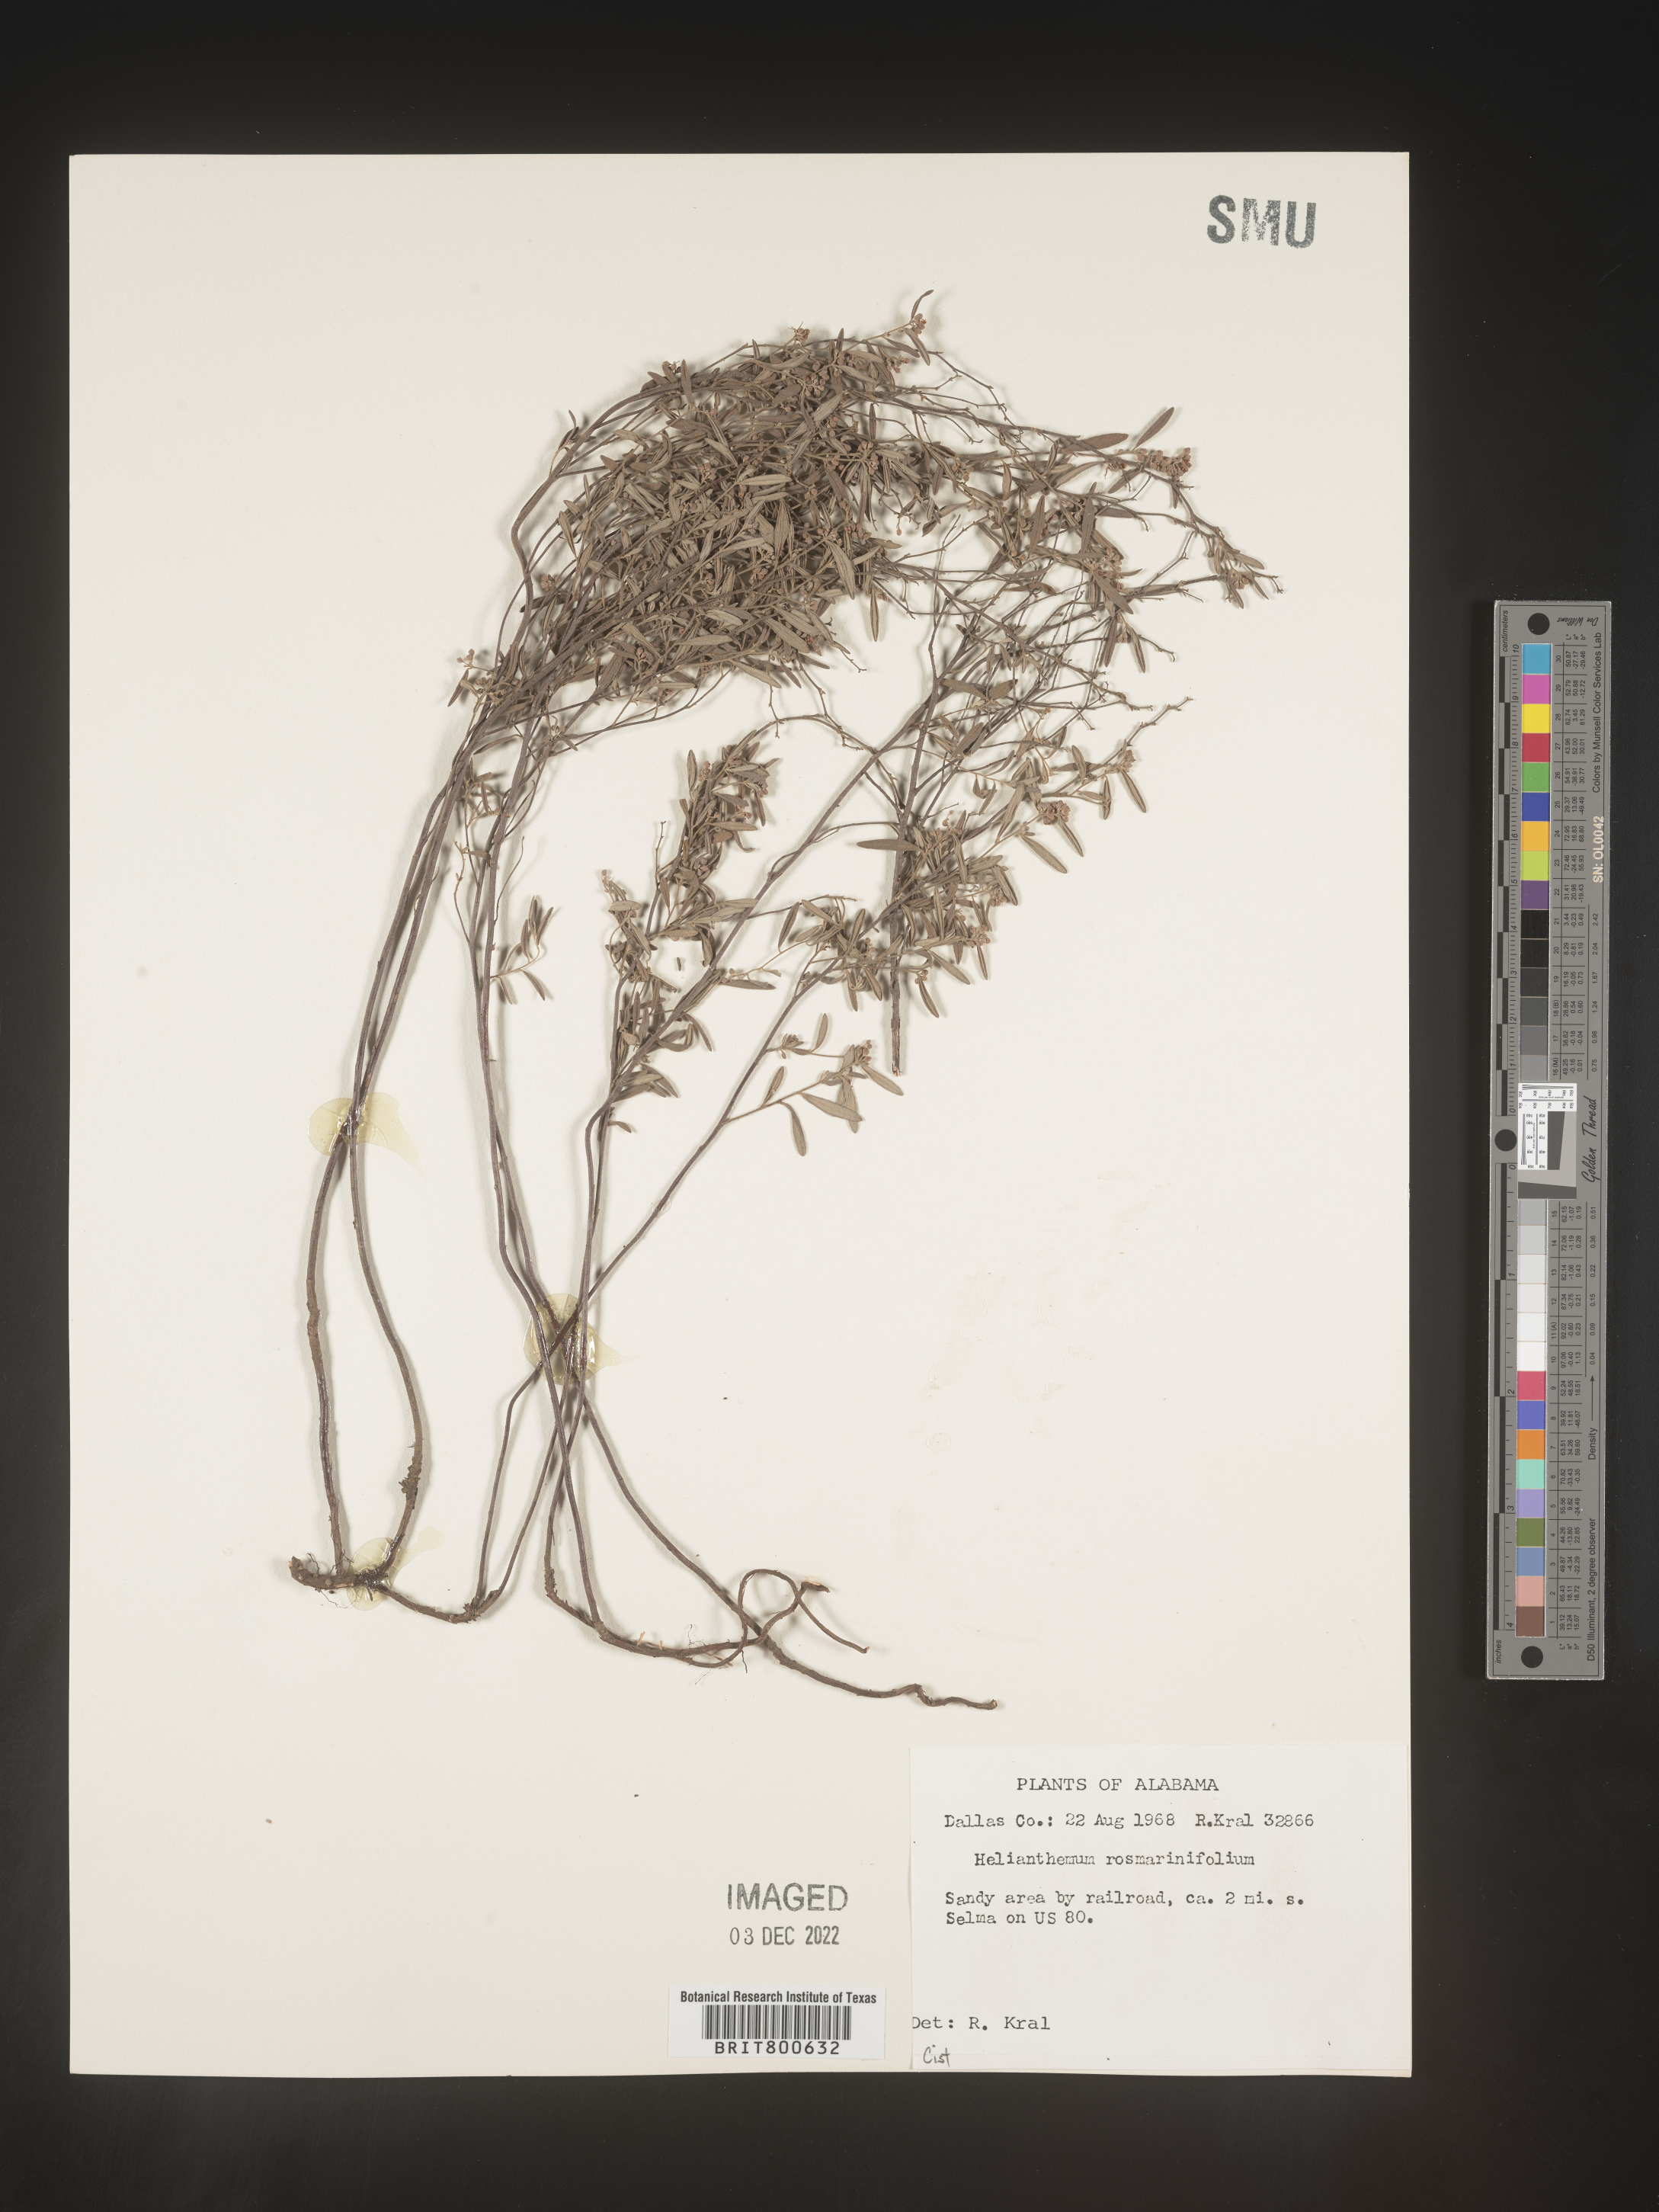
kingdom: Plantae
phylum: Tracheophyta
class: Magnoliopsida
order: Malvales
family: Cistaceae
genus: Helianthemum
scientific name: Helianthemum
